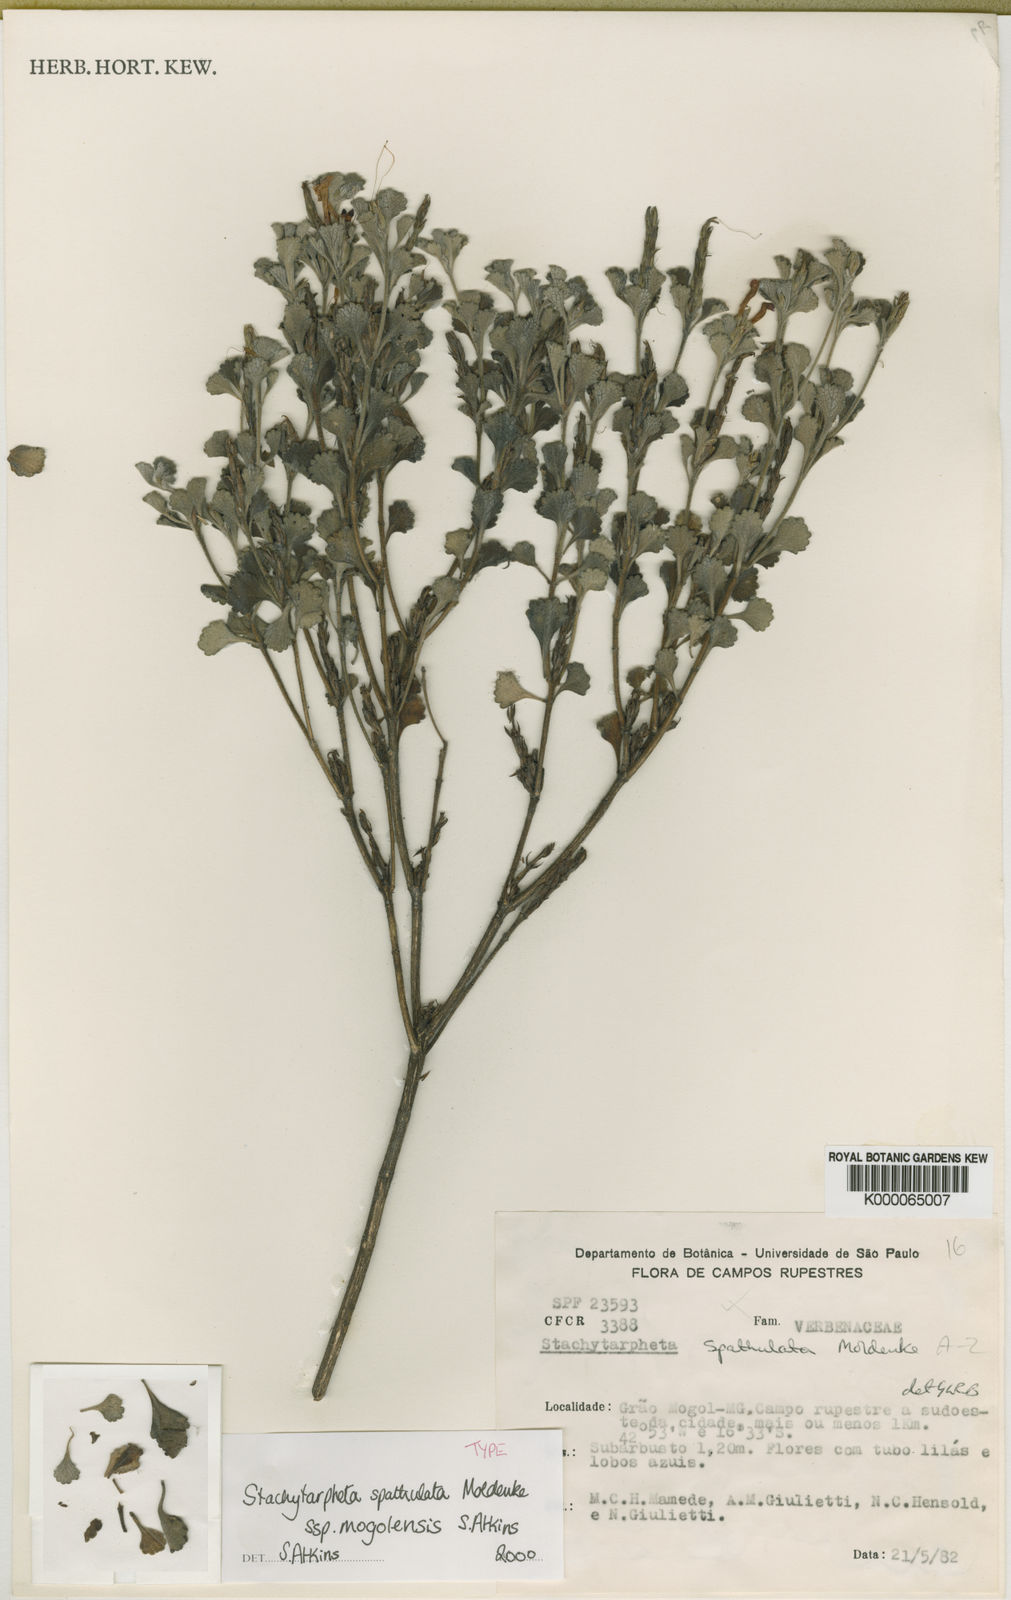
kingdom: Plantae
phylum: Tracheophyta
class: Magnoliopsida
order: Lamiales
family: Verbenaceae
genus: Stachytarpheta
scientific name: Stachytarpheta spathulata
